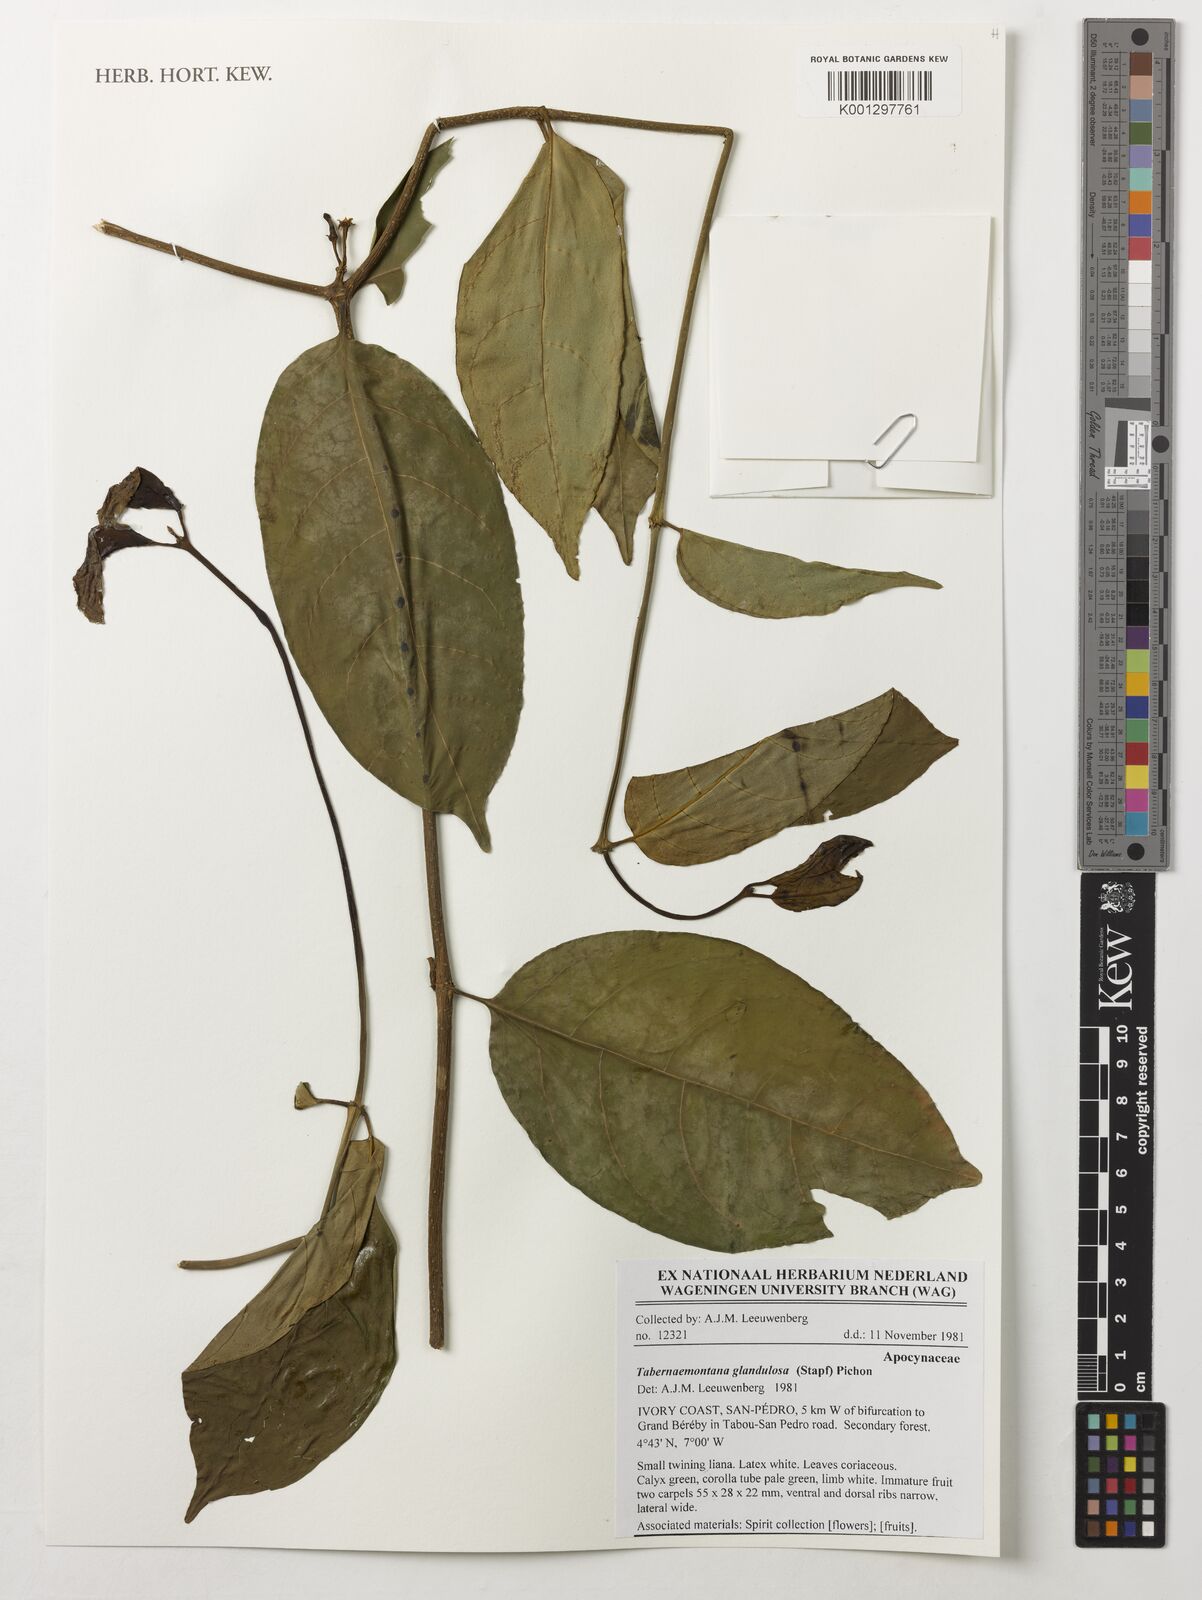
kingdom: Plantae
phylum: Tracheophyta
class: Magnoliopsida
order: Gentianales
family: Apocynaceae
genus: Tabernaemontana
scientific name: Tabernaemontana glandulosa
